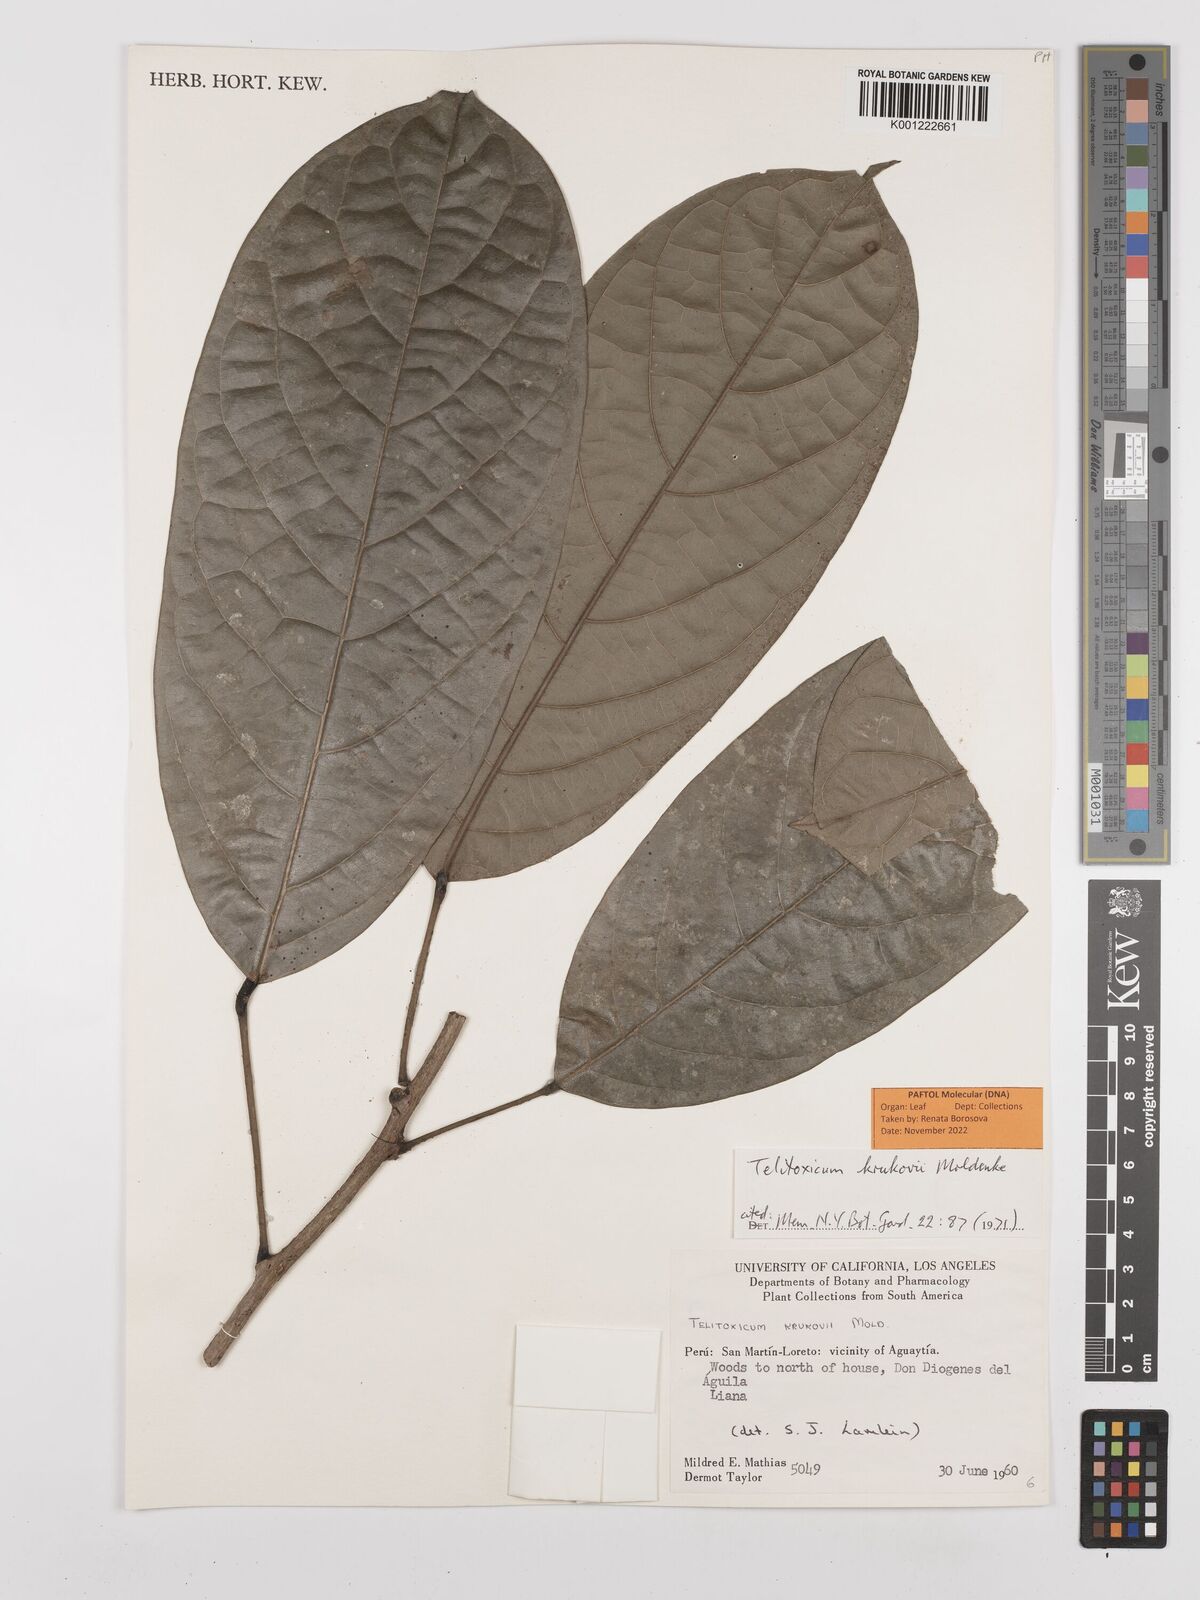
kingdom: Plantae
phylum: Tracheophyta
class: Magnoliopsida
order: Ranunculales
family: Menispermaceae
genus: Telitoxicum
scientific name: Telitoxicum krukovii
